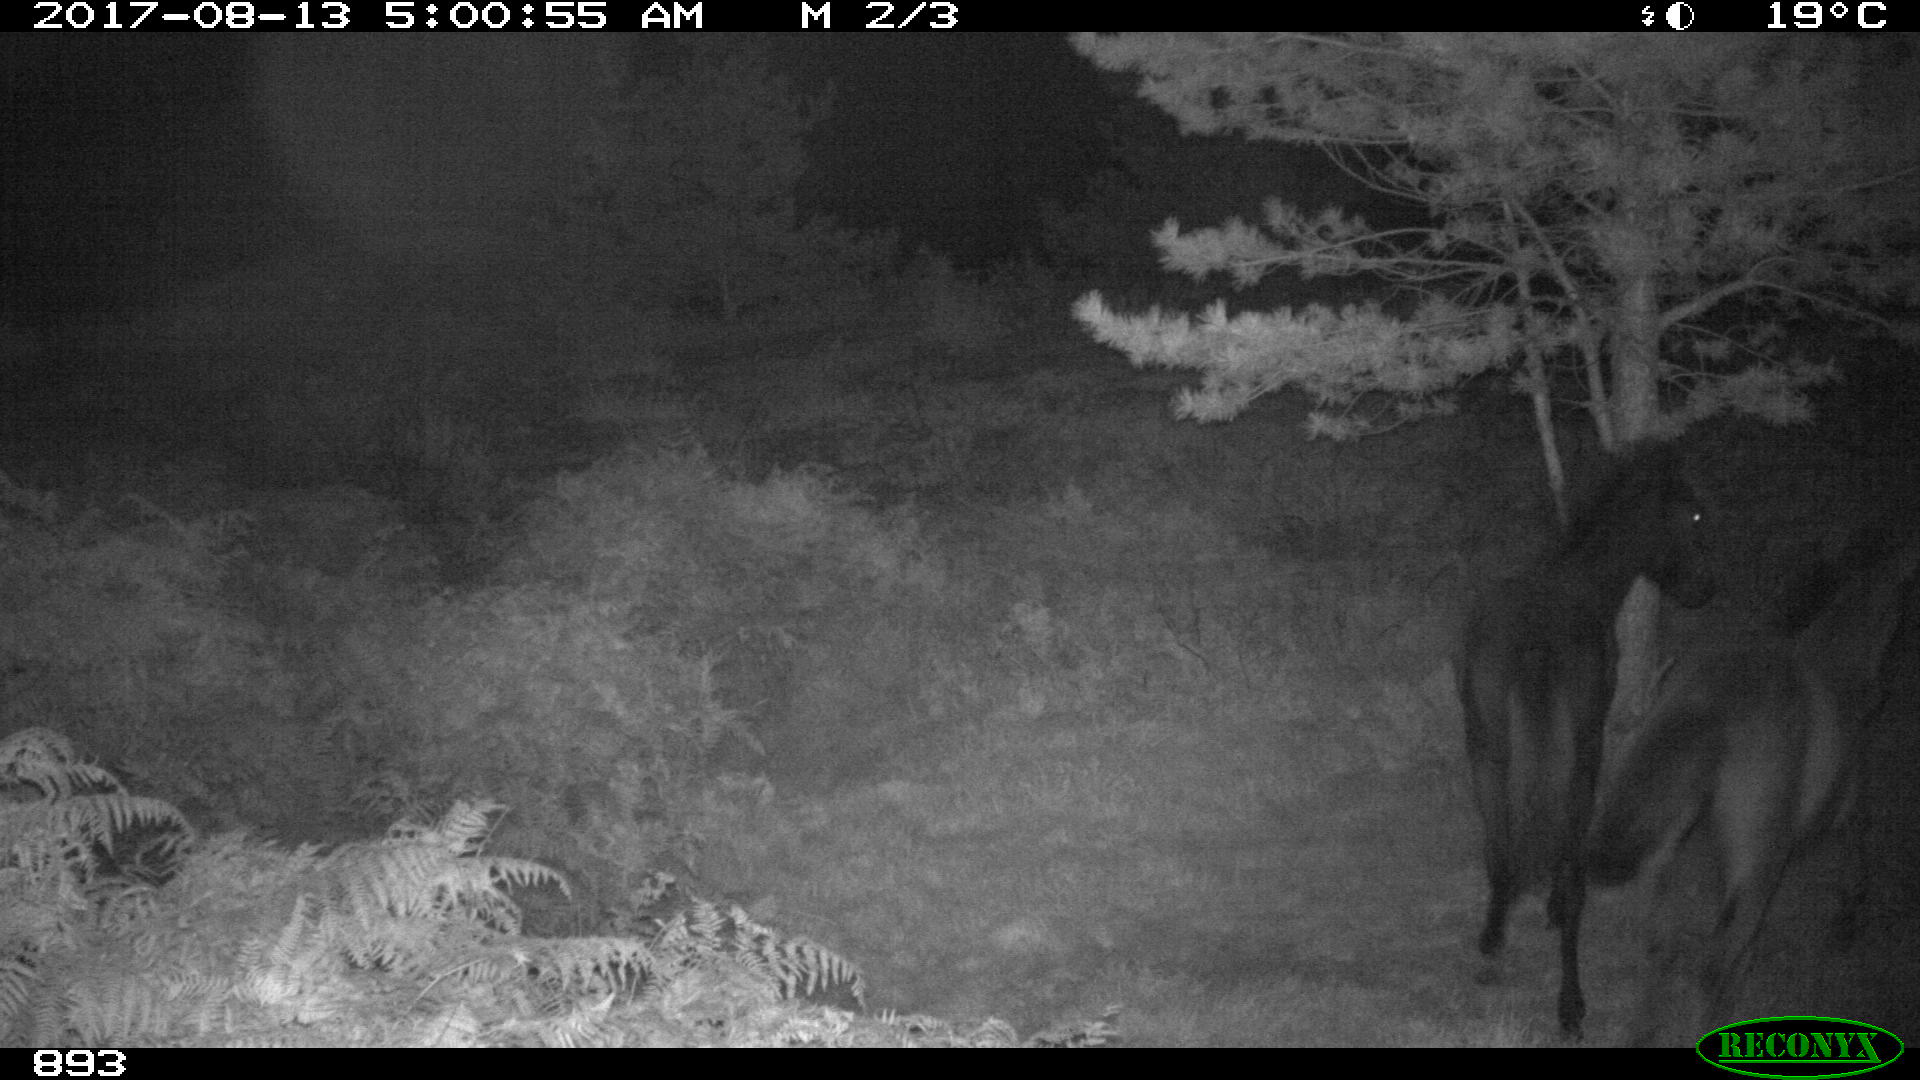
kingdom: Animalia
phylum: Chordata
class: Mammalia
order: Perissodactyla
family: Equidae
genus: Equus
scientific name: Equus caballus
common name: Horse
